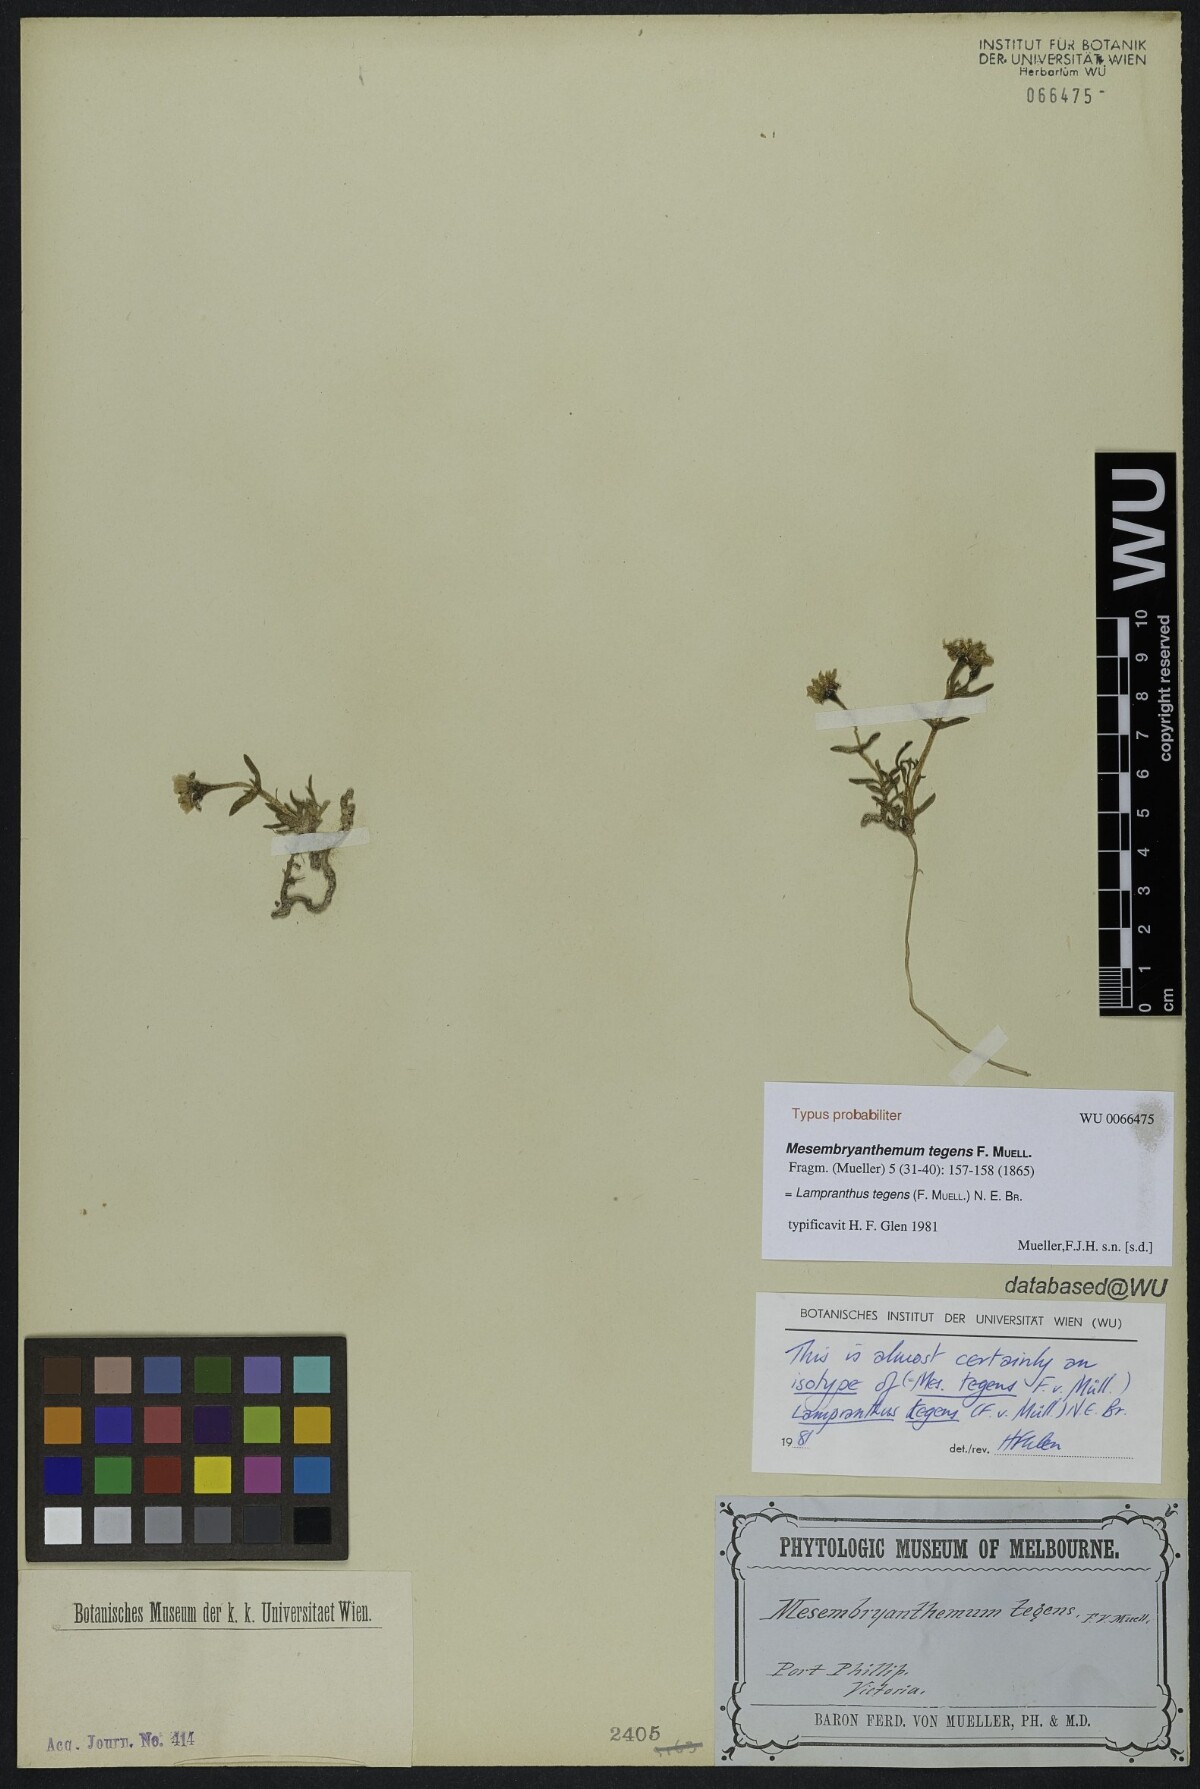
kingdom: Plantae
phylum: Tracheophyta
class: Magnoliopsida
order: Caryophyllales
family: Aizoaceae
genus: Lampranthus
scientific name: Lampranthus tegens
